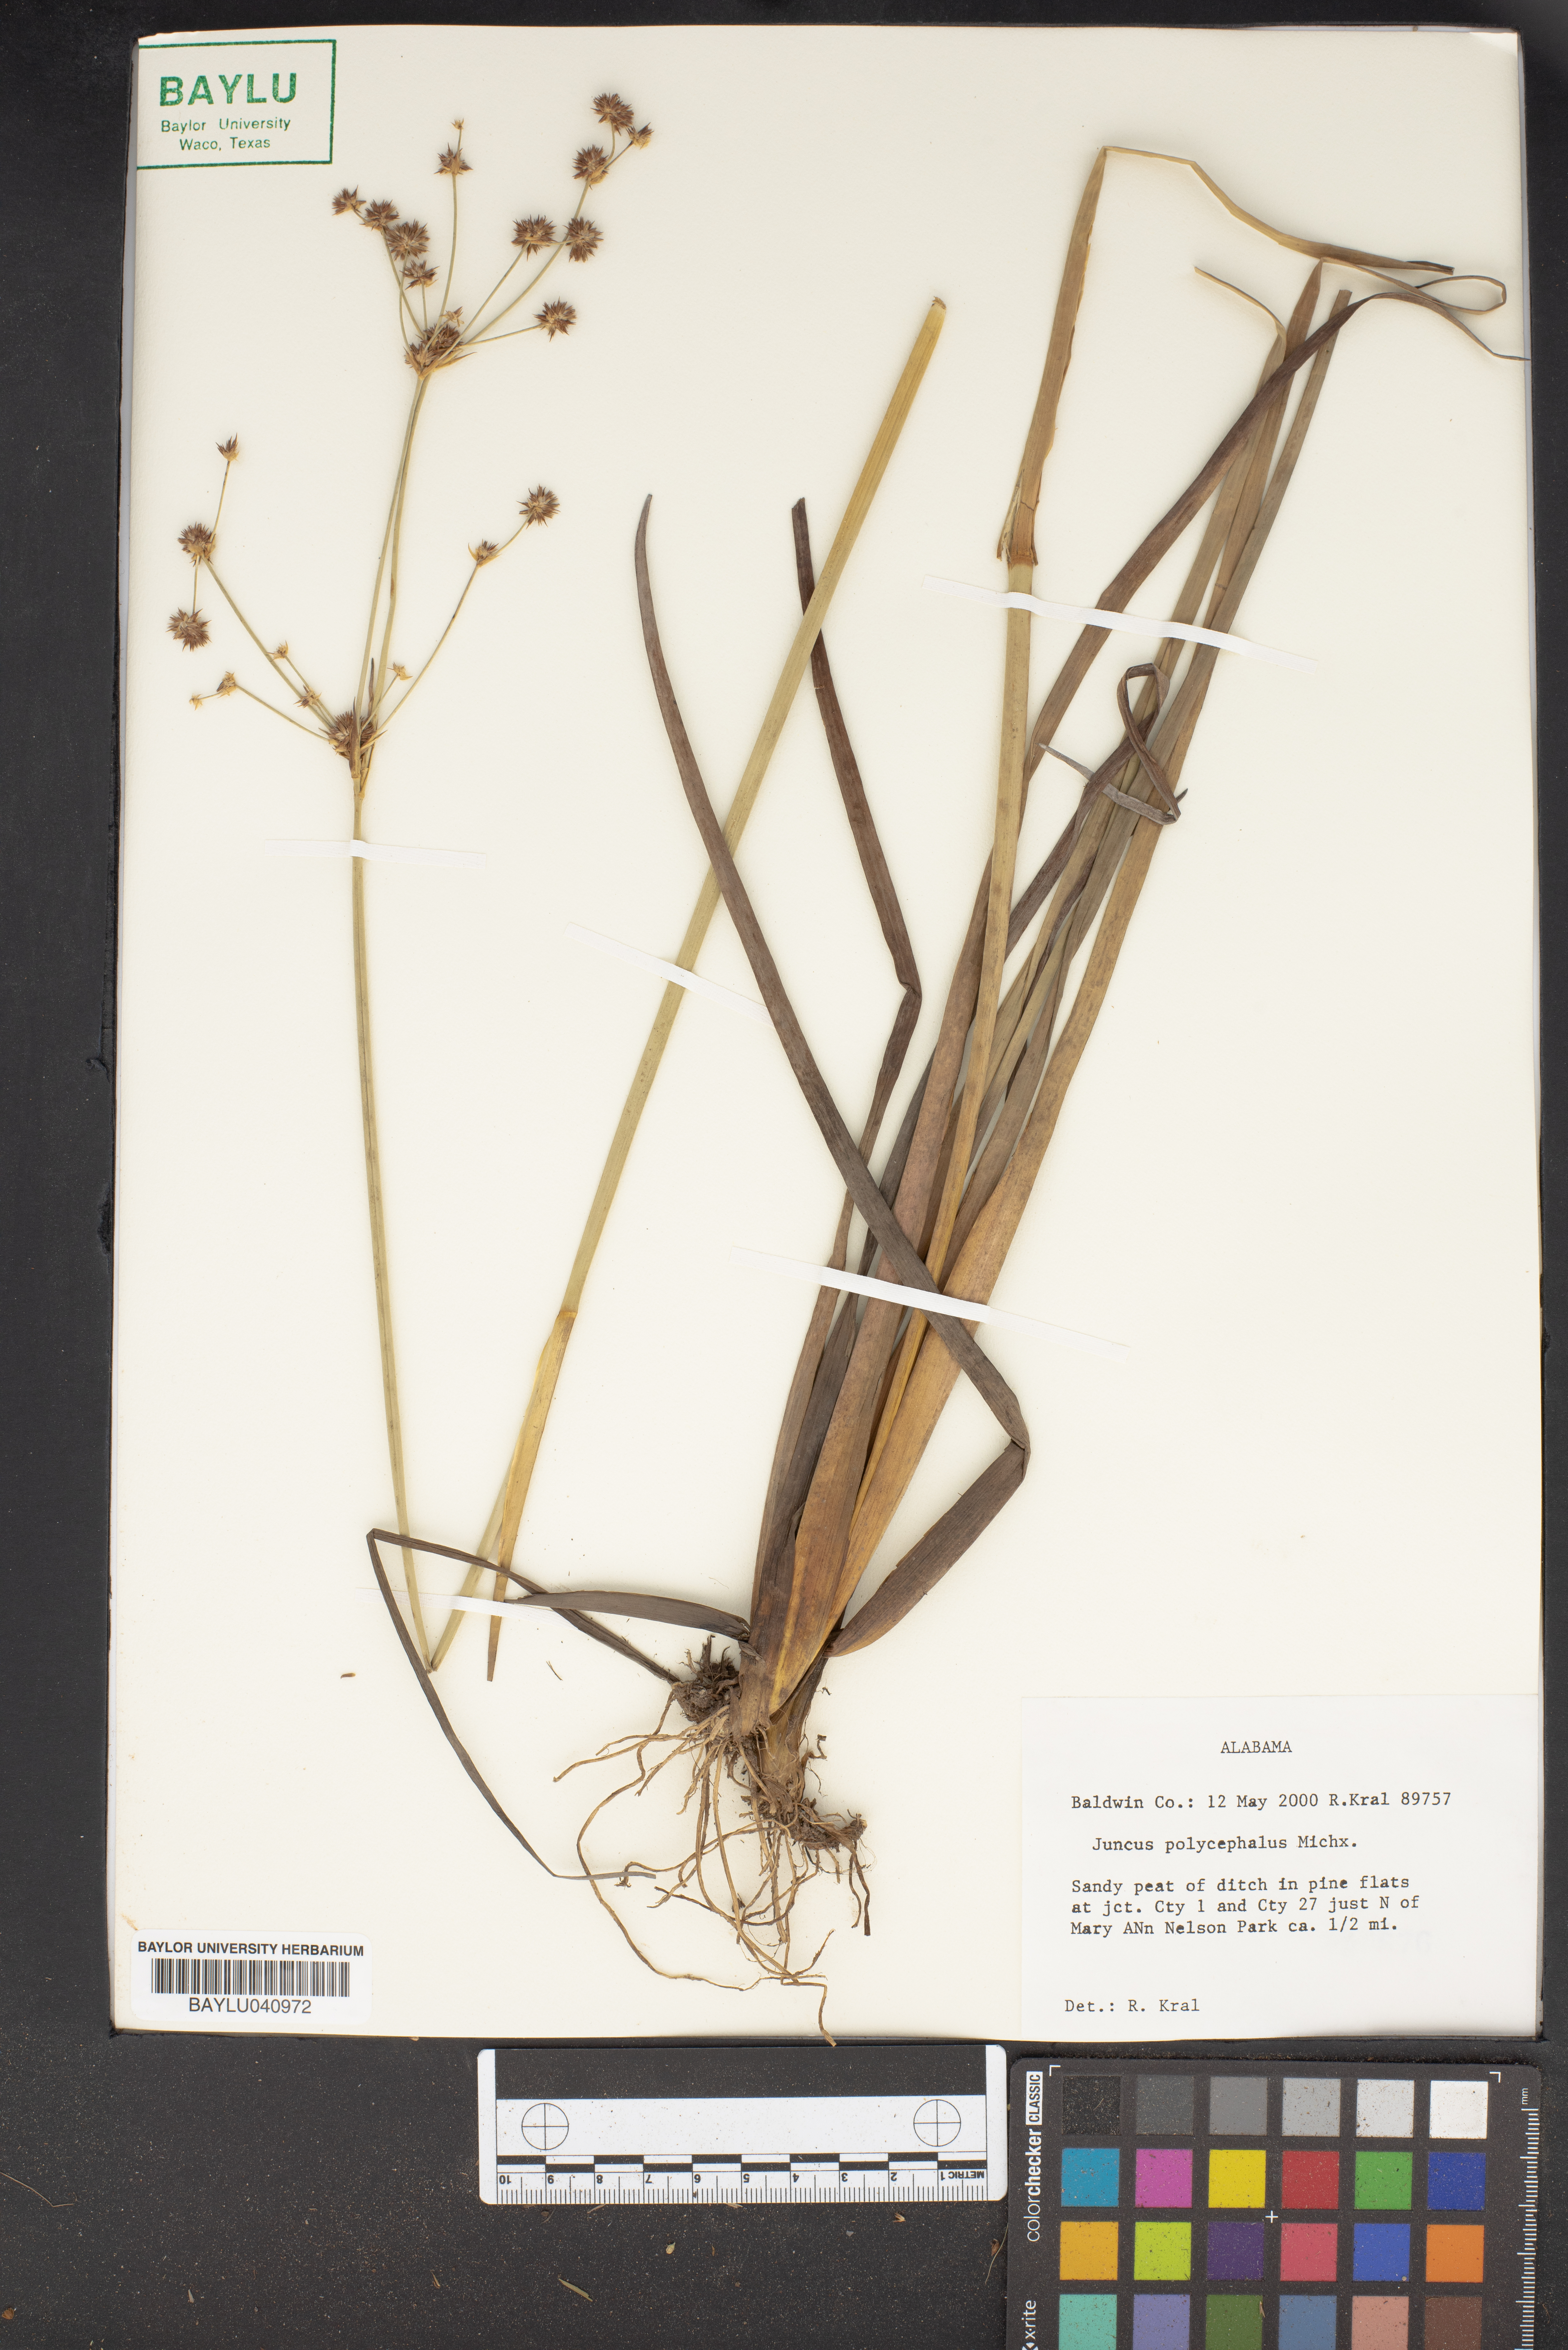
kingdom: Plantae
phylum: Tracheophyta
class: Liliopsida
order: Poales
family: Juncaceae
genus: Juncus
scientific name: Juncus polycephalus
